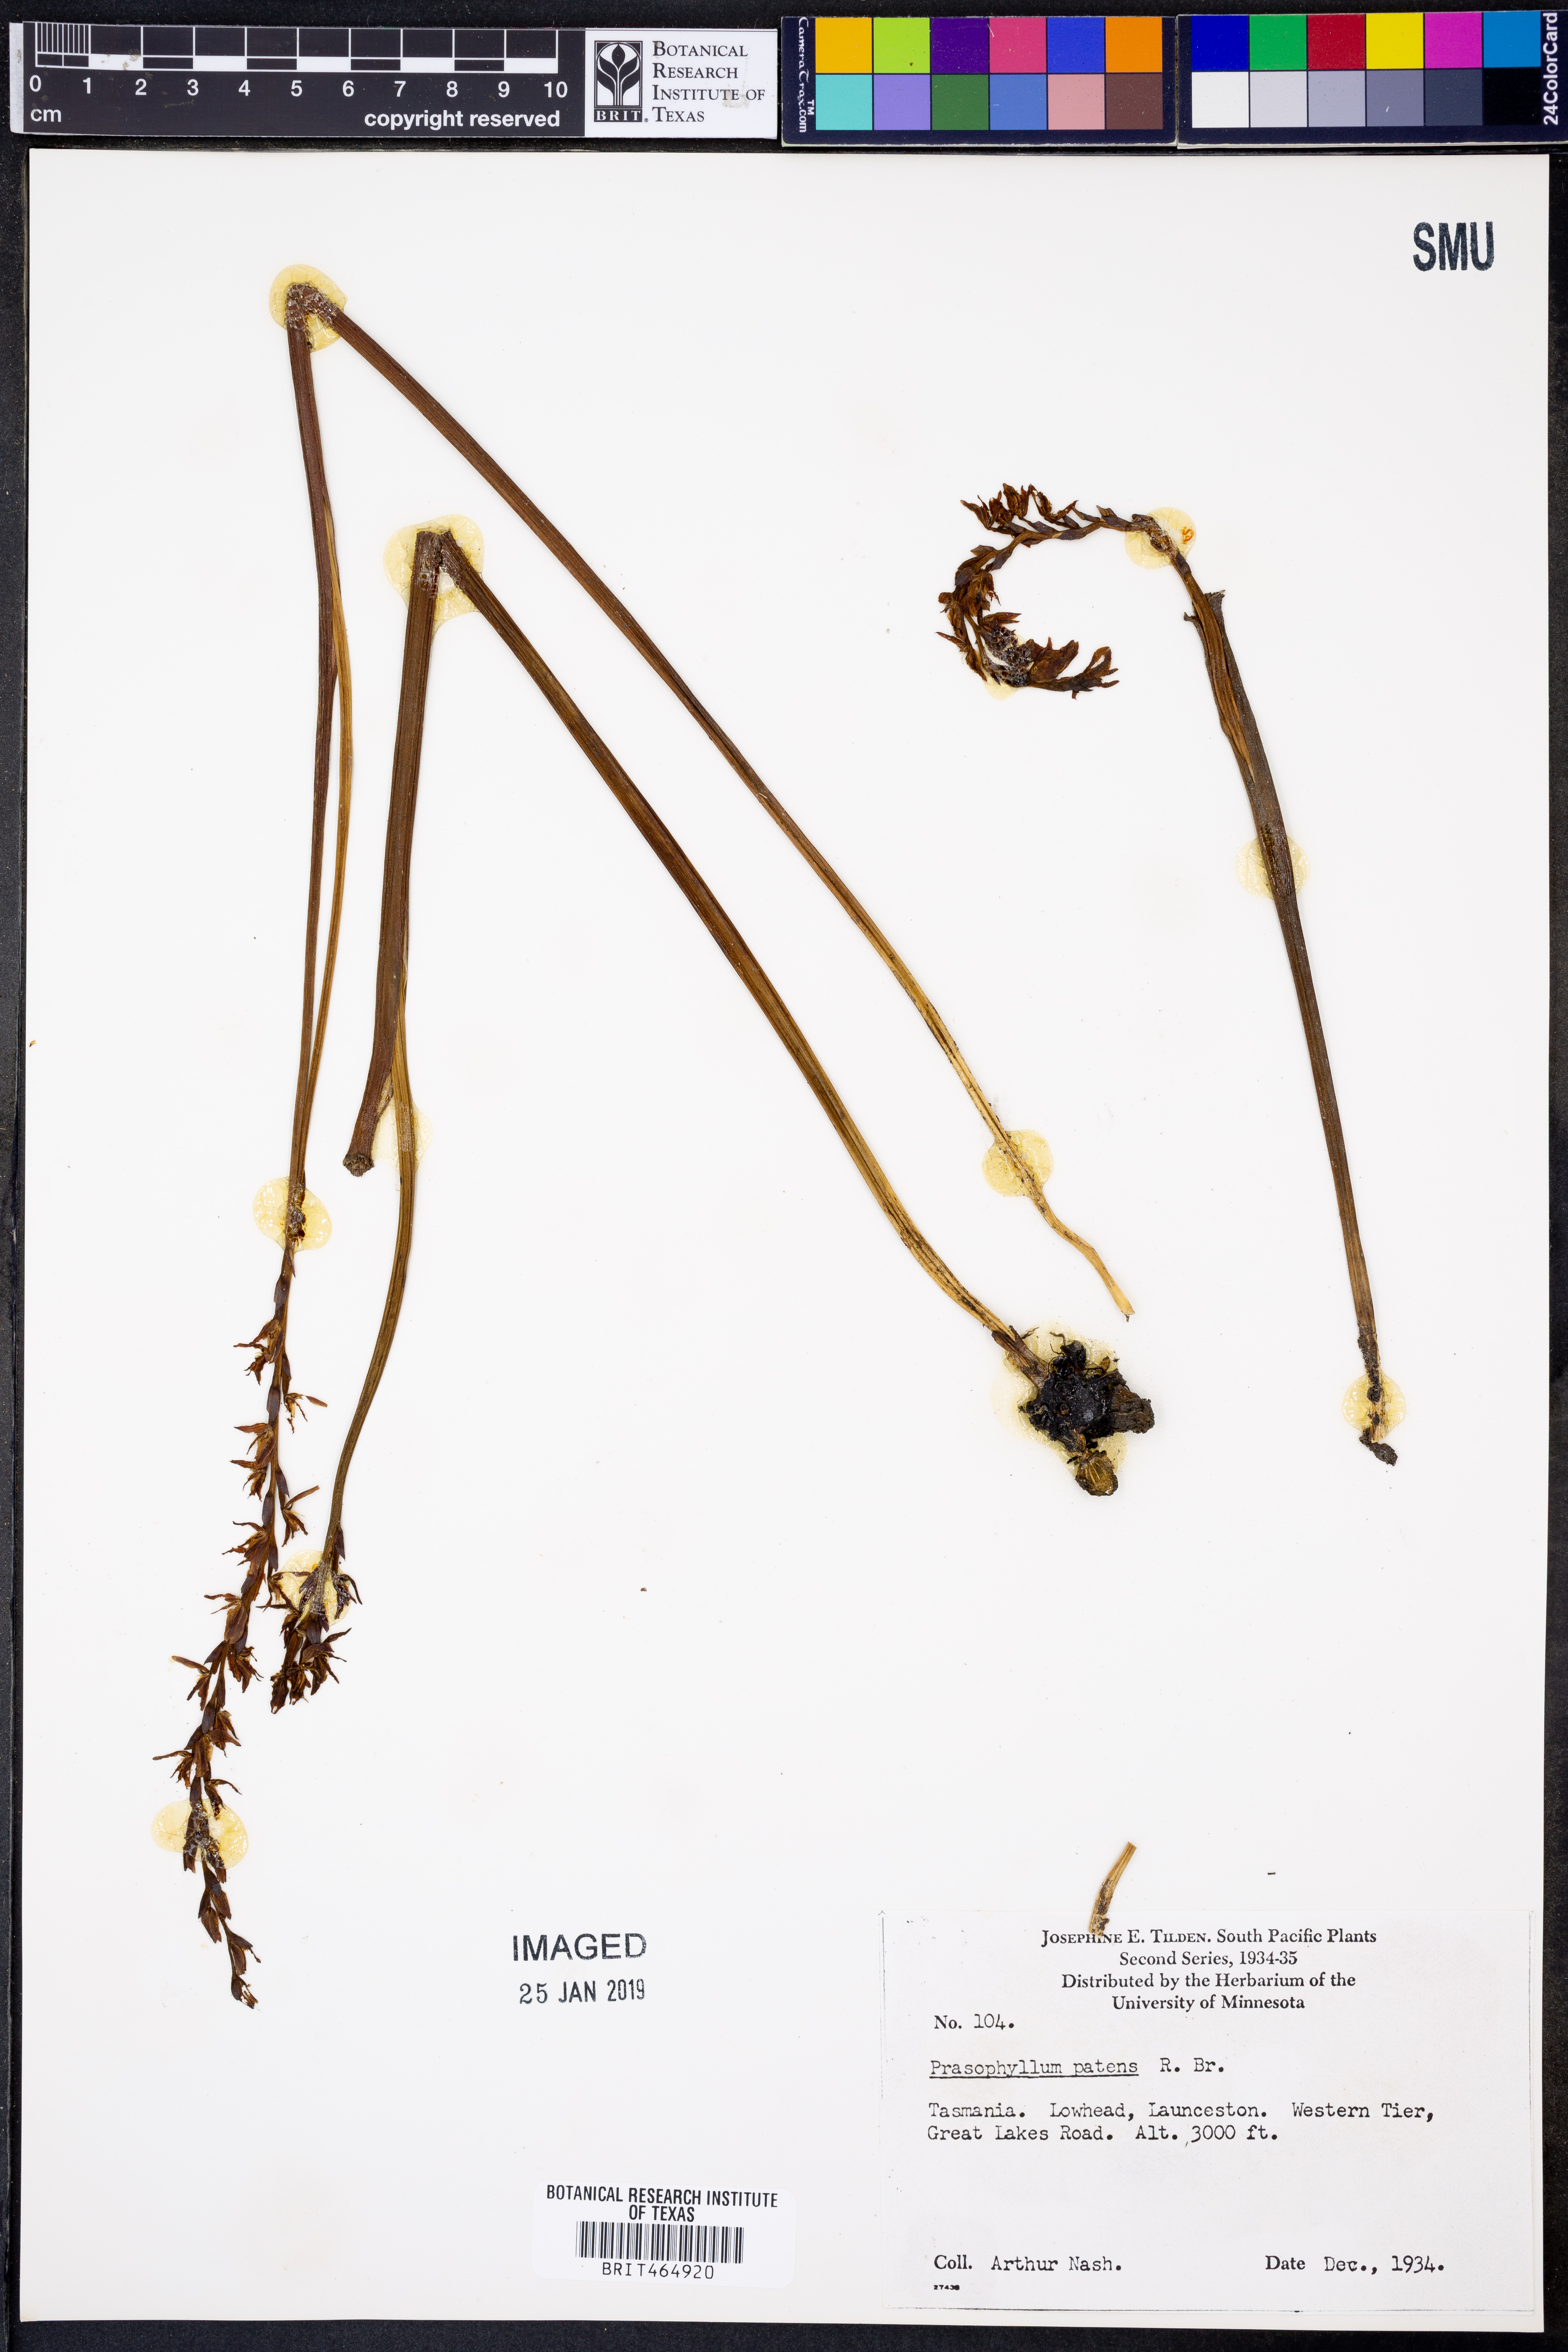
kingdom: Plantae
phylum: Tracheophyta
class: Liliopsida
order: Asparagales
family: Orchidaceae
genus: Prasophyllum
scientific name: Prasophyllum patens
